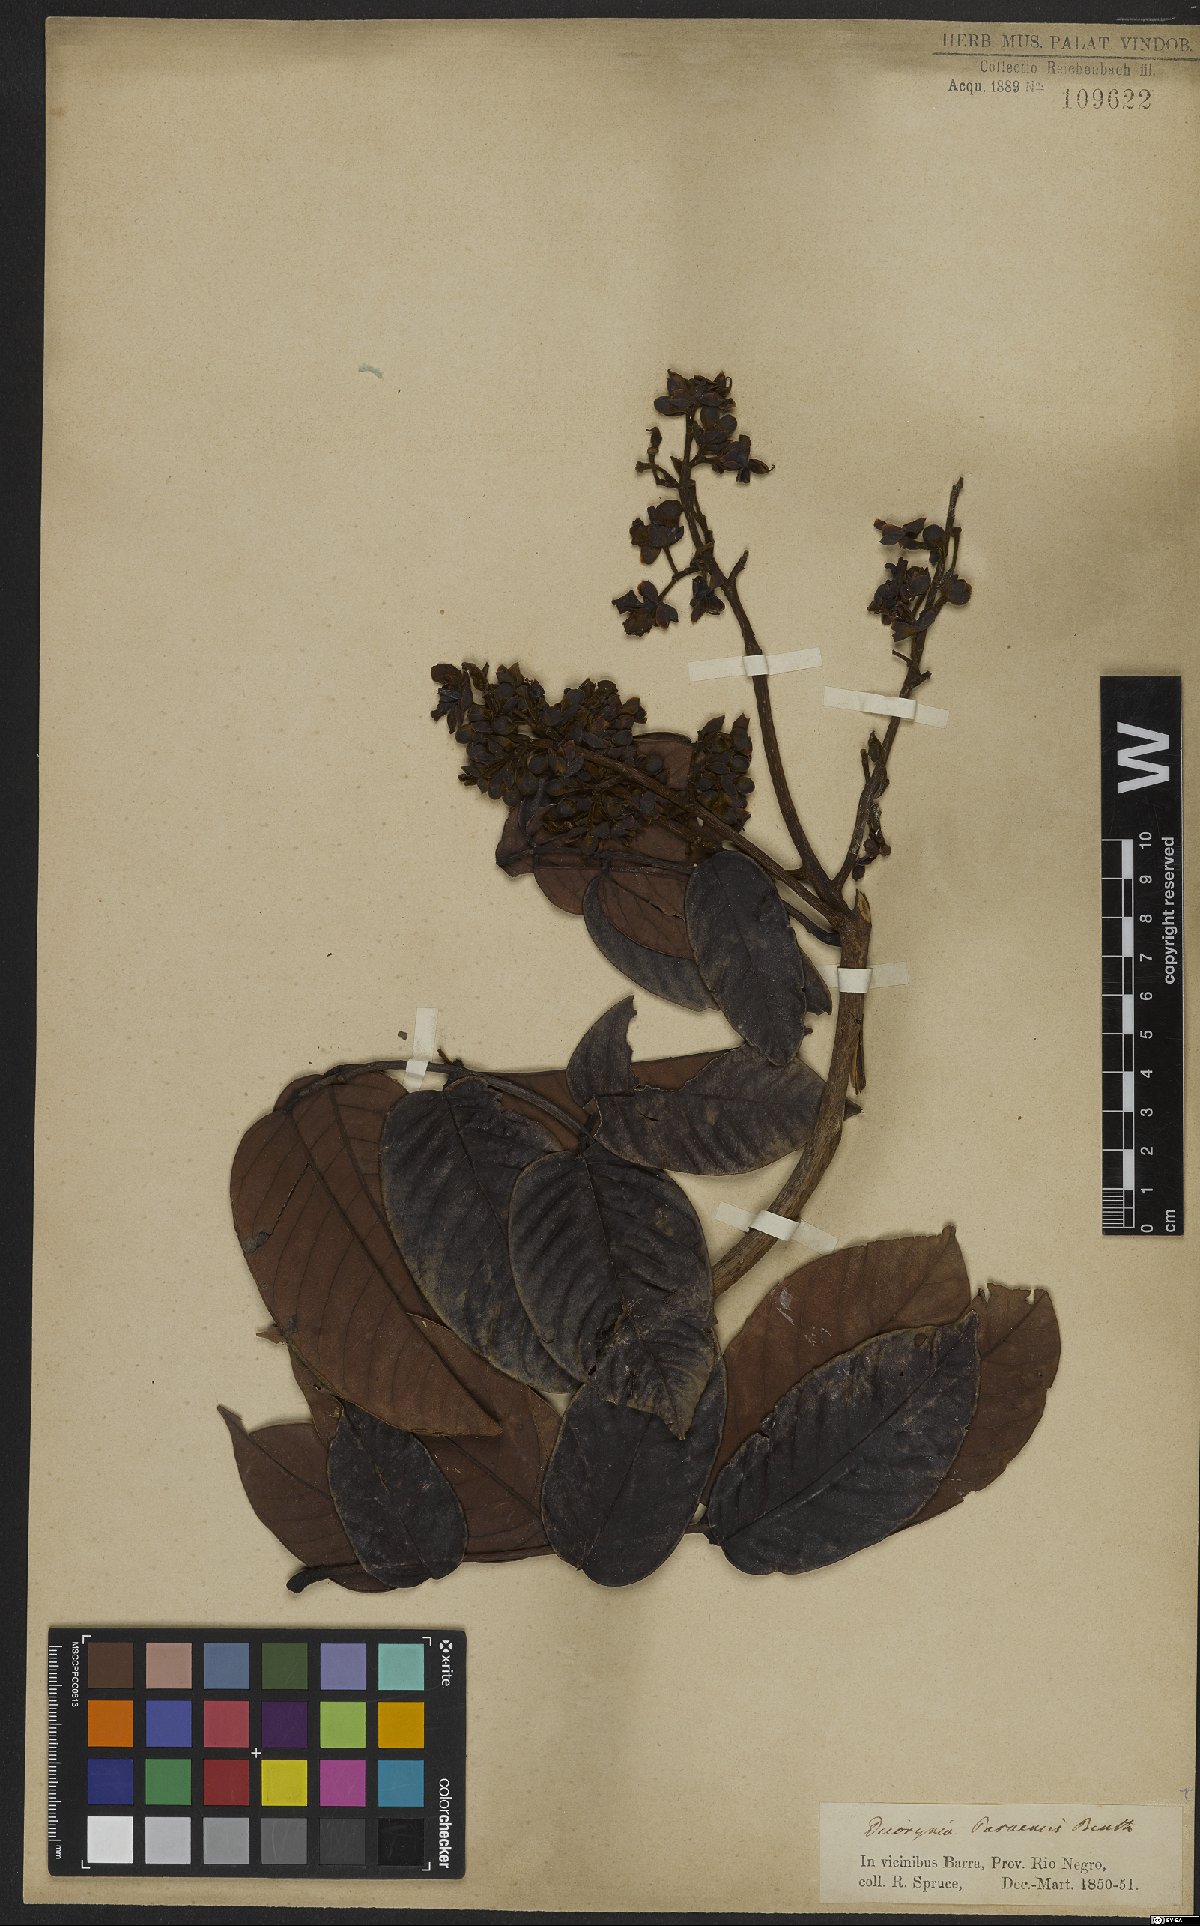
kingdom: Plantae
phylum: Tracheophyta
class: Magnoliopsida
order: Fabales
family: Fabaceae
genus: Dicorynia
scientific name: Dicorynia paraensis
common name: Angelique
